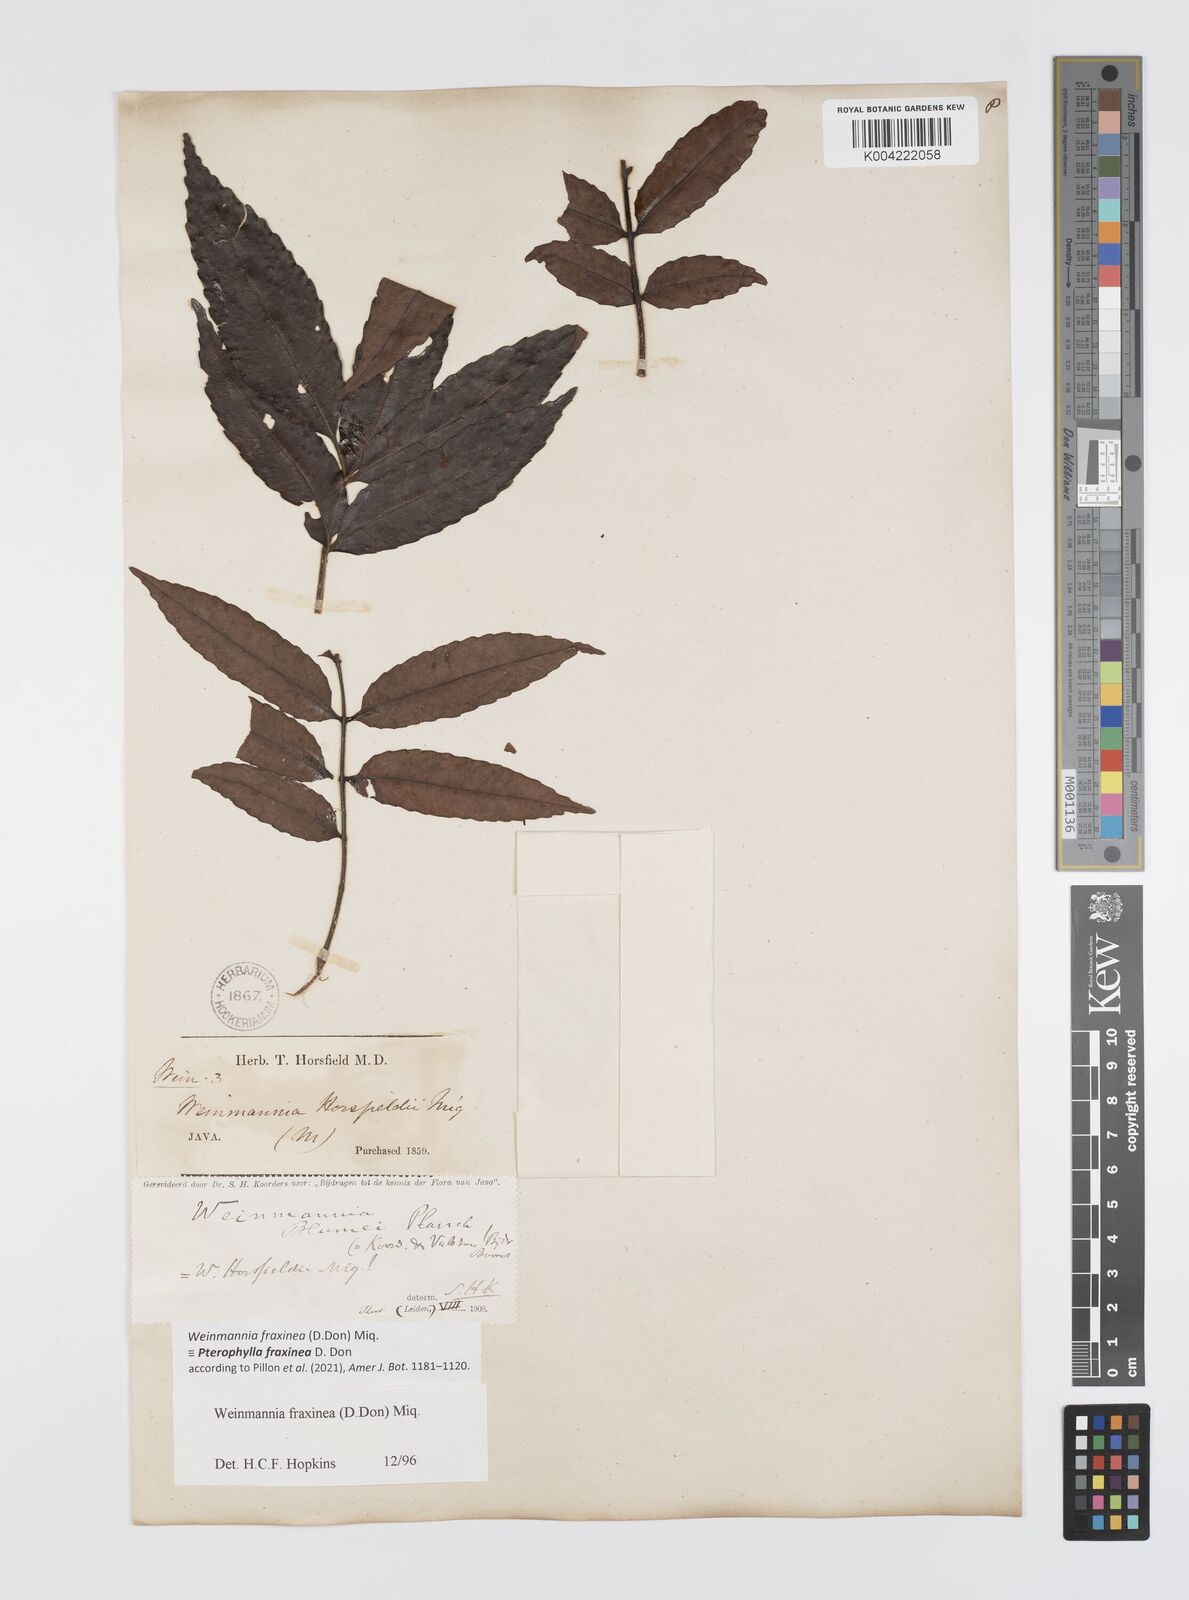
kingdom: Plantae
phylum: Tracheophyta
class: Magnoliopsida
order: Oxalidales
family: Cunoniaceae
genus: Pterophylla
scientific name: Pterophylla fraxinea
